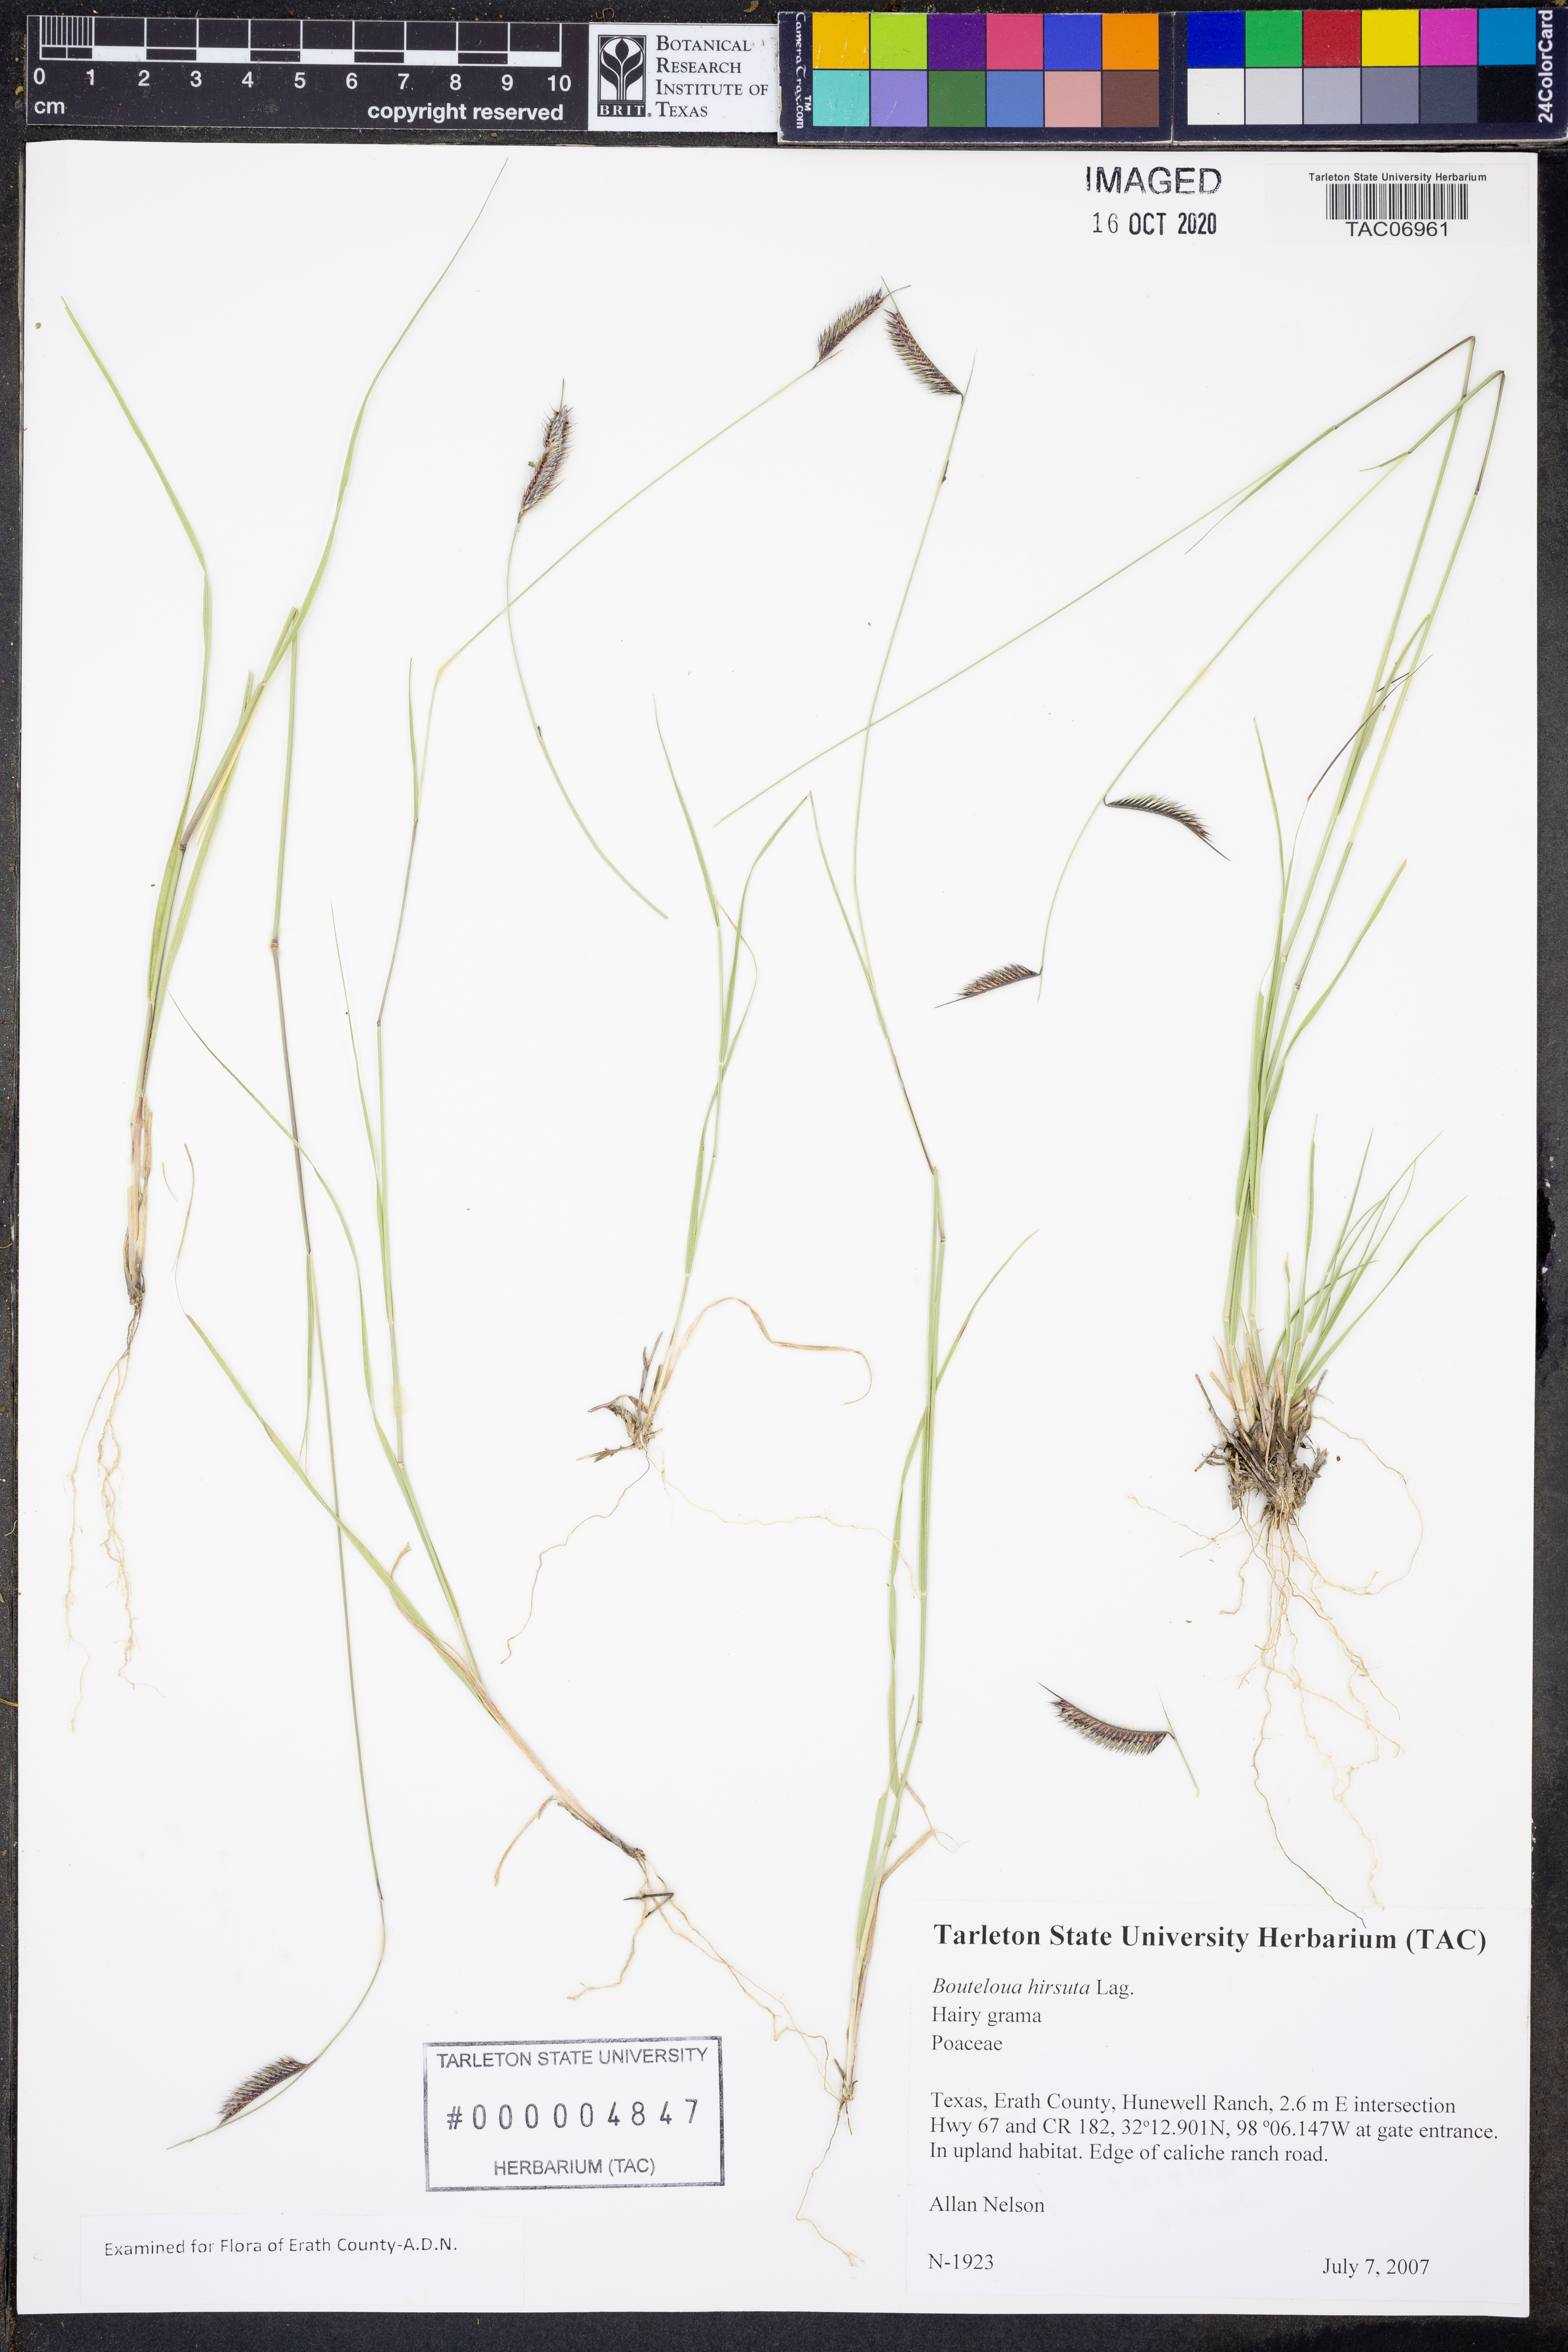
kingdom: Plantae
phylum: Tracheophyta
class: Liliopsida
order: Poales
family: Poaceae
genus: Bouteloua
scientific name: Bouteloua hirsuta
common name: Hairy grama
